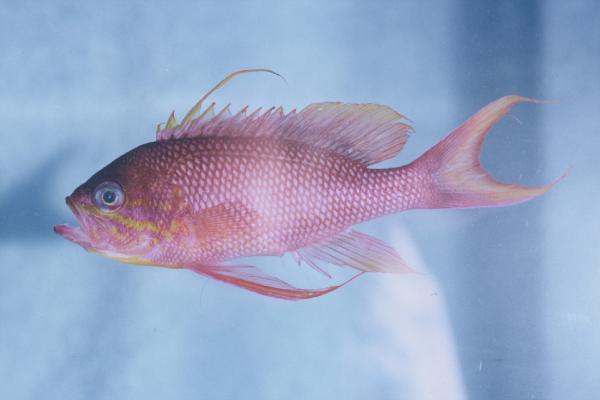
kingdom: Animalia
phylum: Chordata
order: Perciformes
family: Serranidae
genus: Anthias
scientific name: Anthias anthias
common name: Swallowtail seaperch
